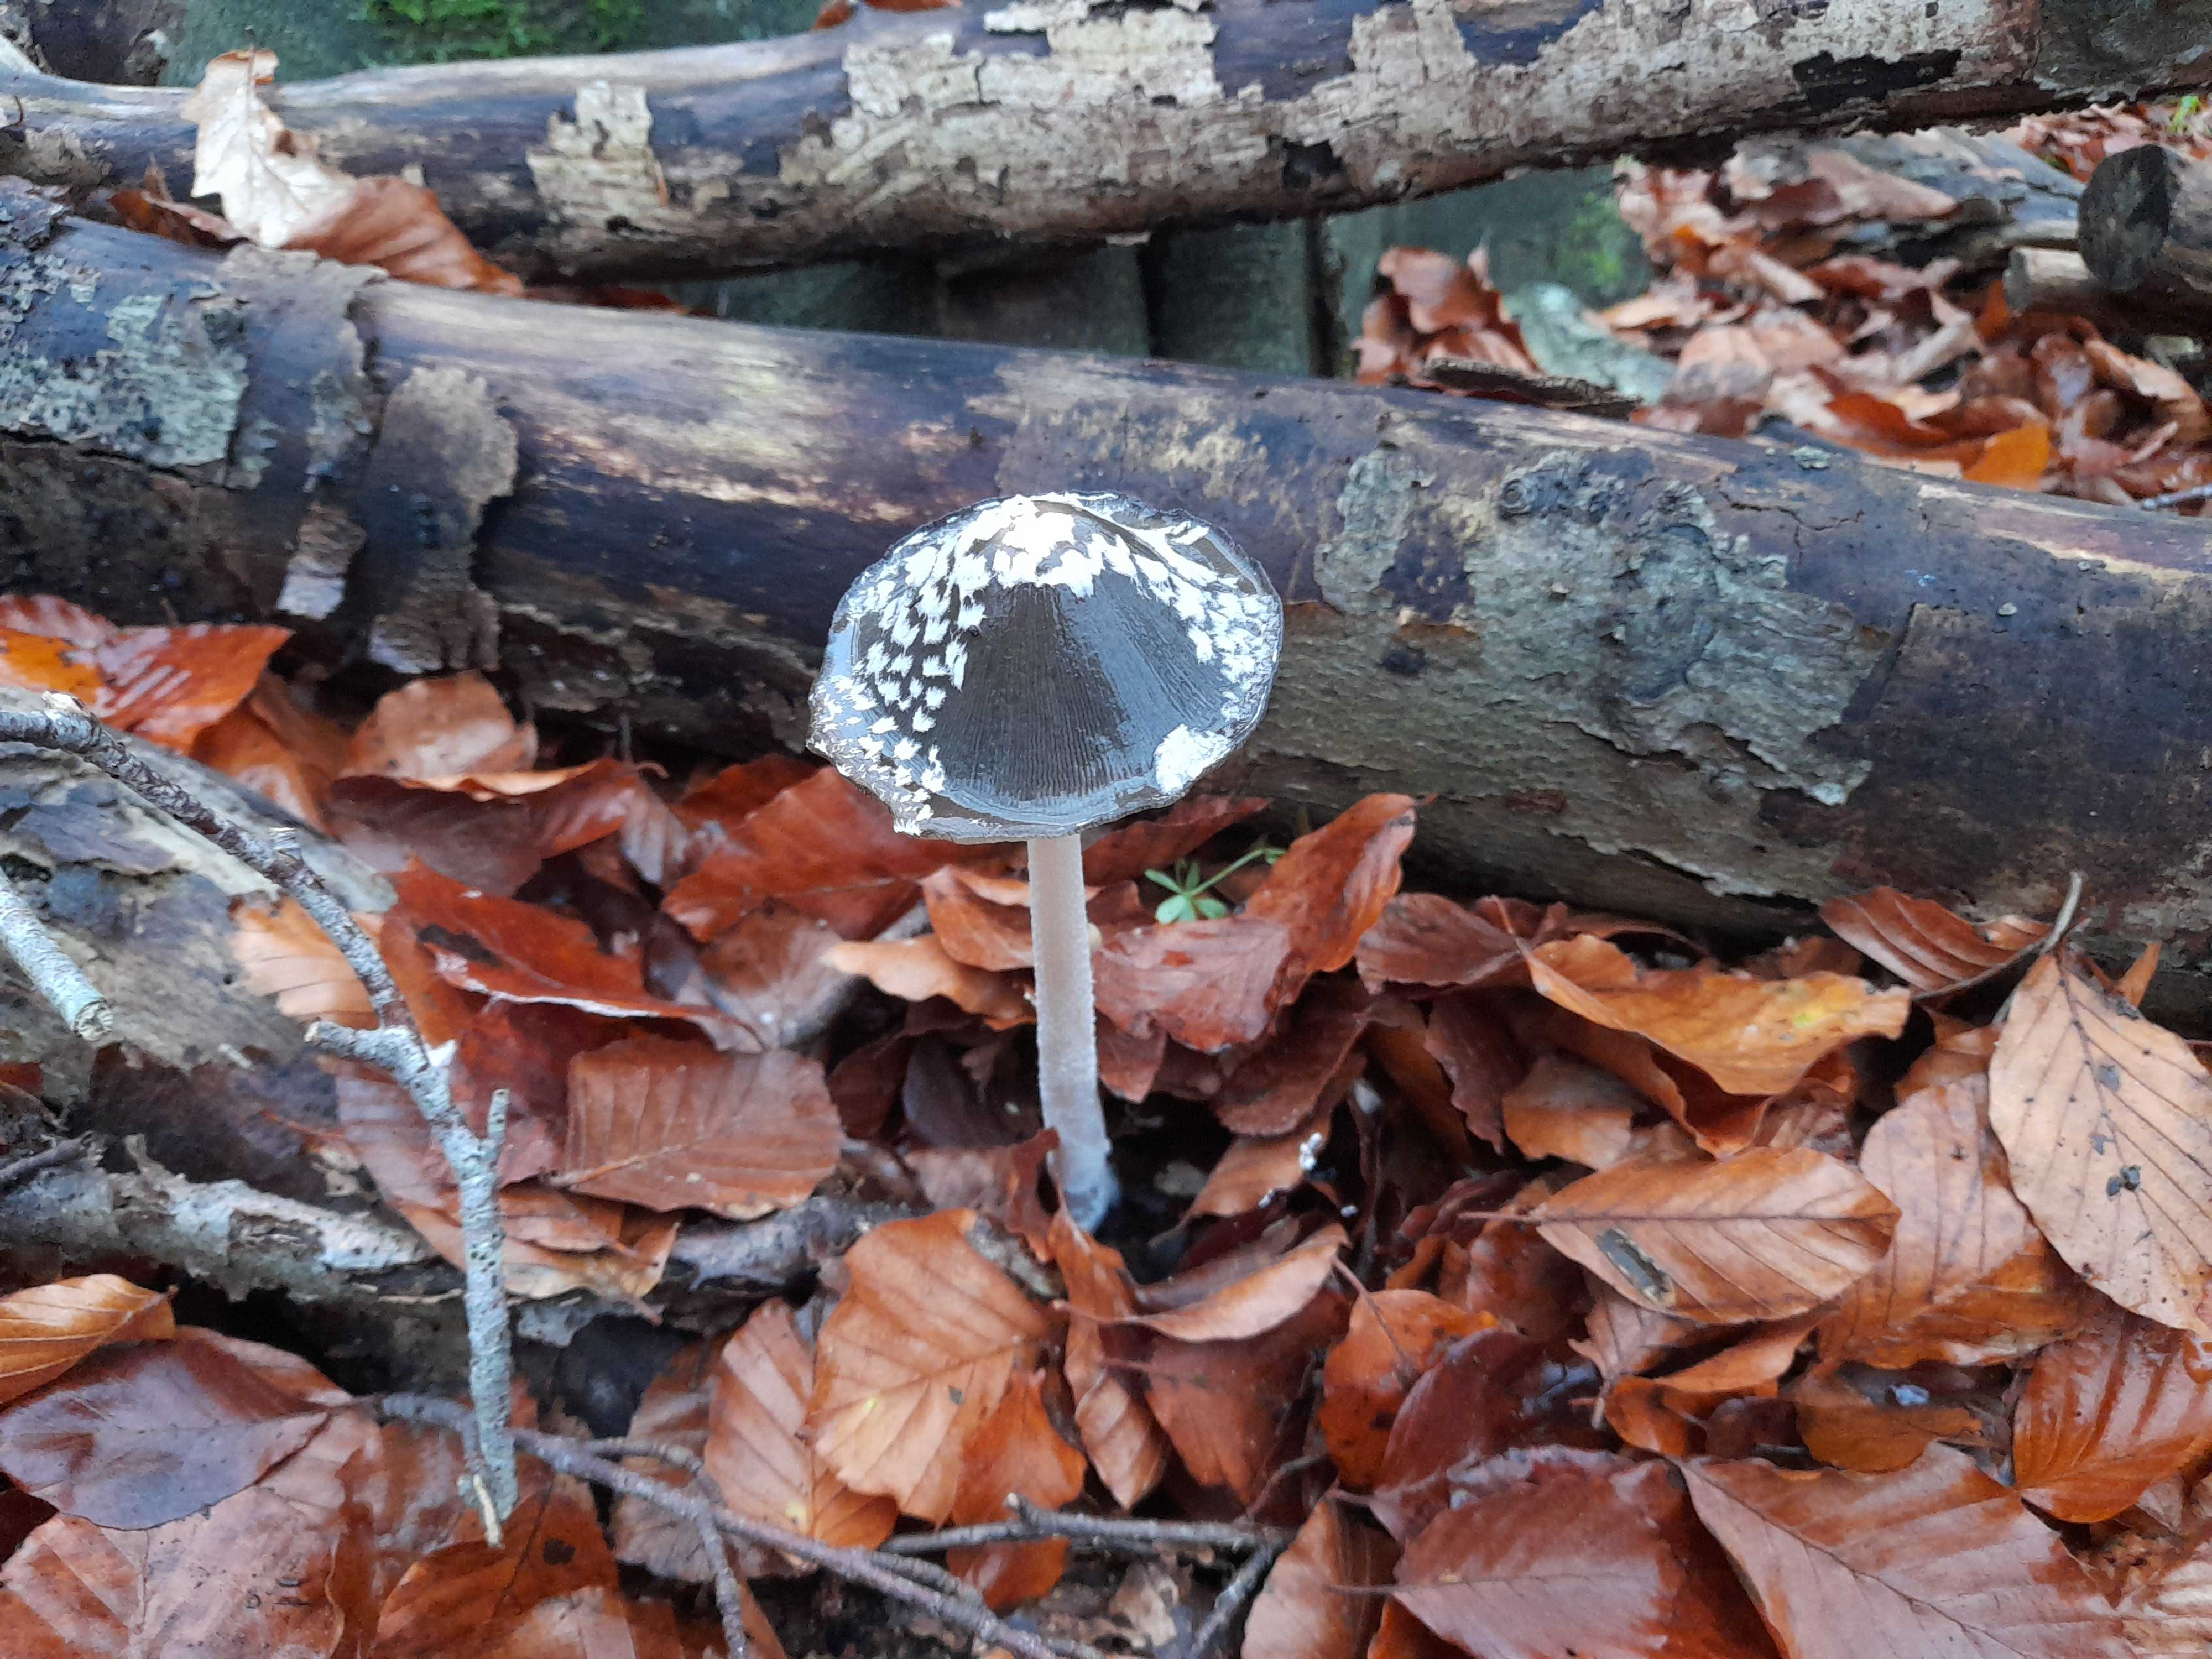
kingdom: Fungi
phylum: Basidiomycota
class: Agaricomycetes
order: Agaricales
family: Psathyrellaceae
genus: Coprinopsis
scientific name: Coprinopsis picacea
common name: skade-blækhat
